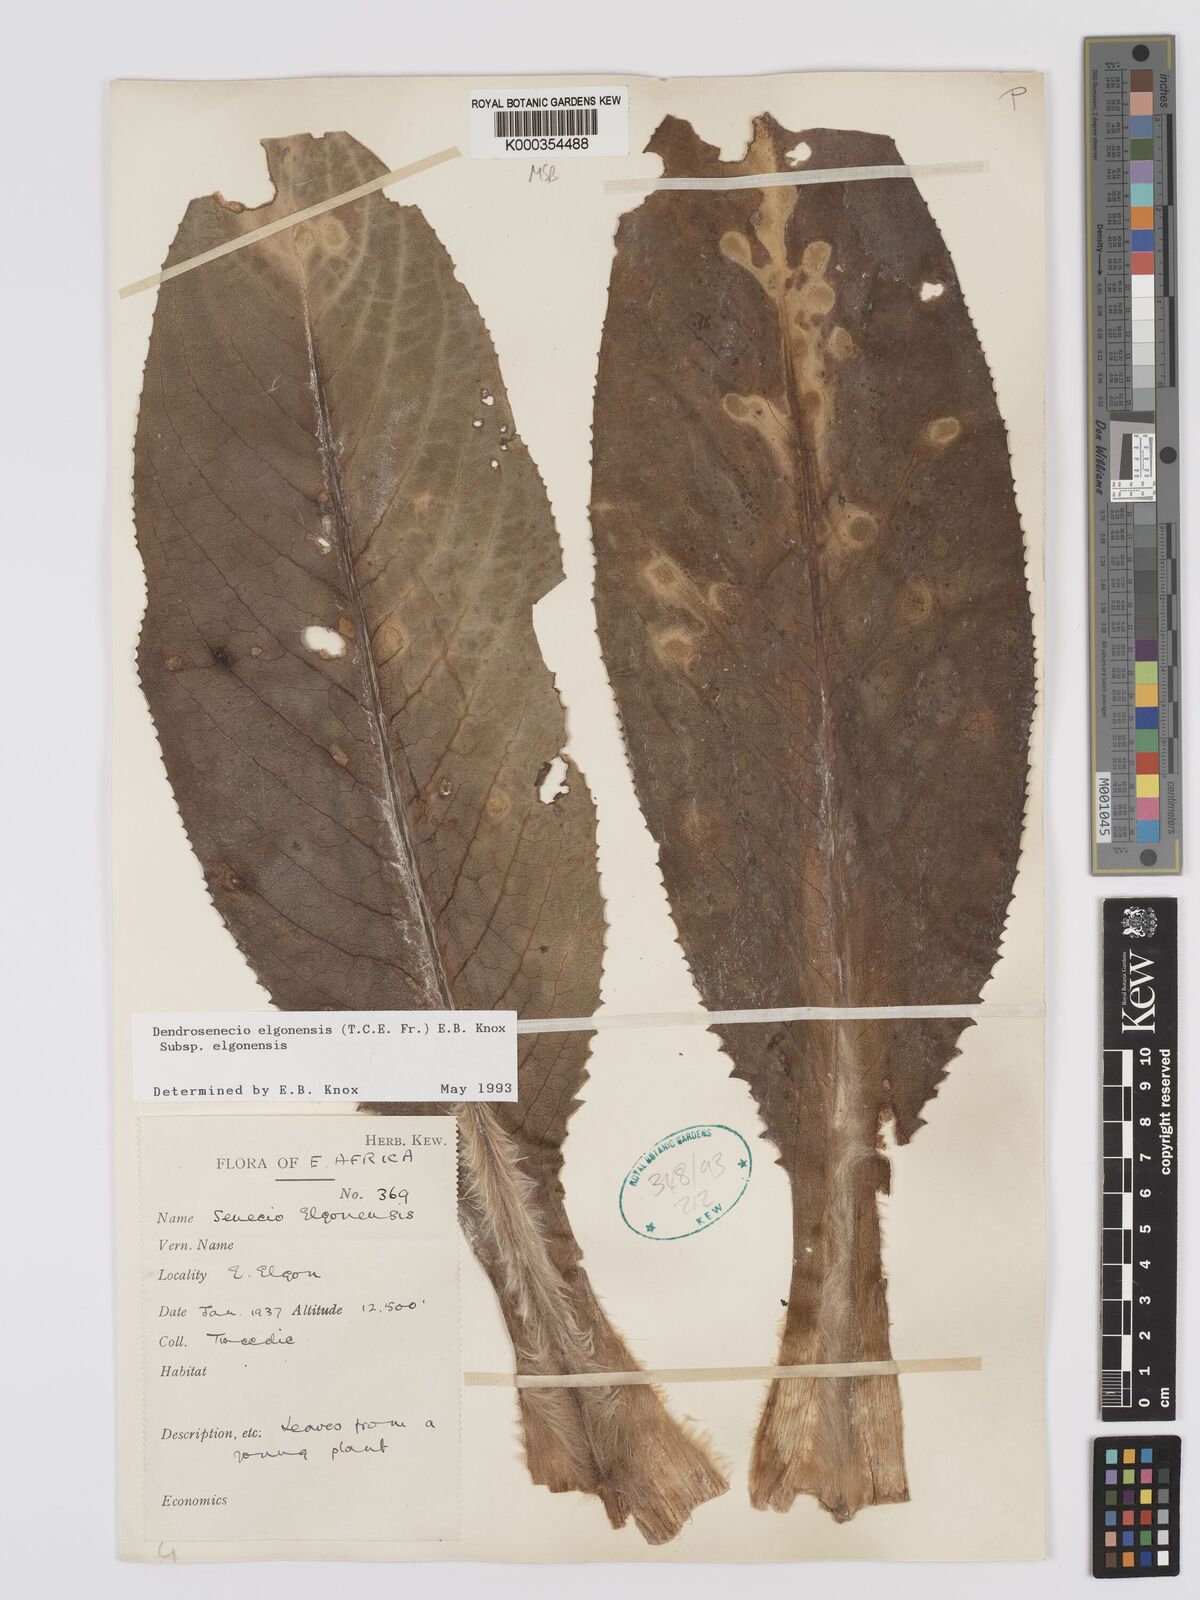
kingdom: Plantae
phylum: Tracheophyta
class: Magnoliopsida
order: Asterales
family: Asteraceae
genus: Dendrosenecio
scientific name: Dendrosenecio elgonensis
